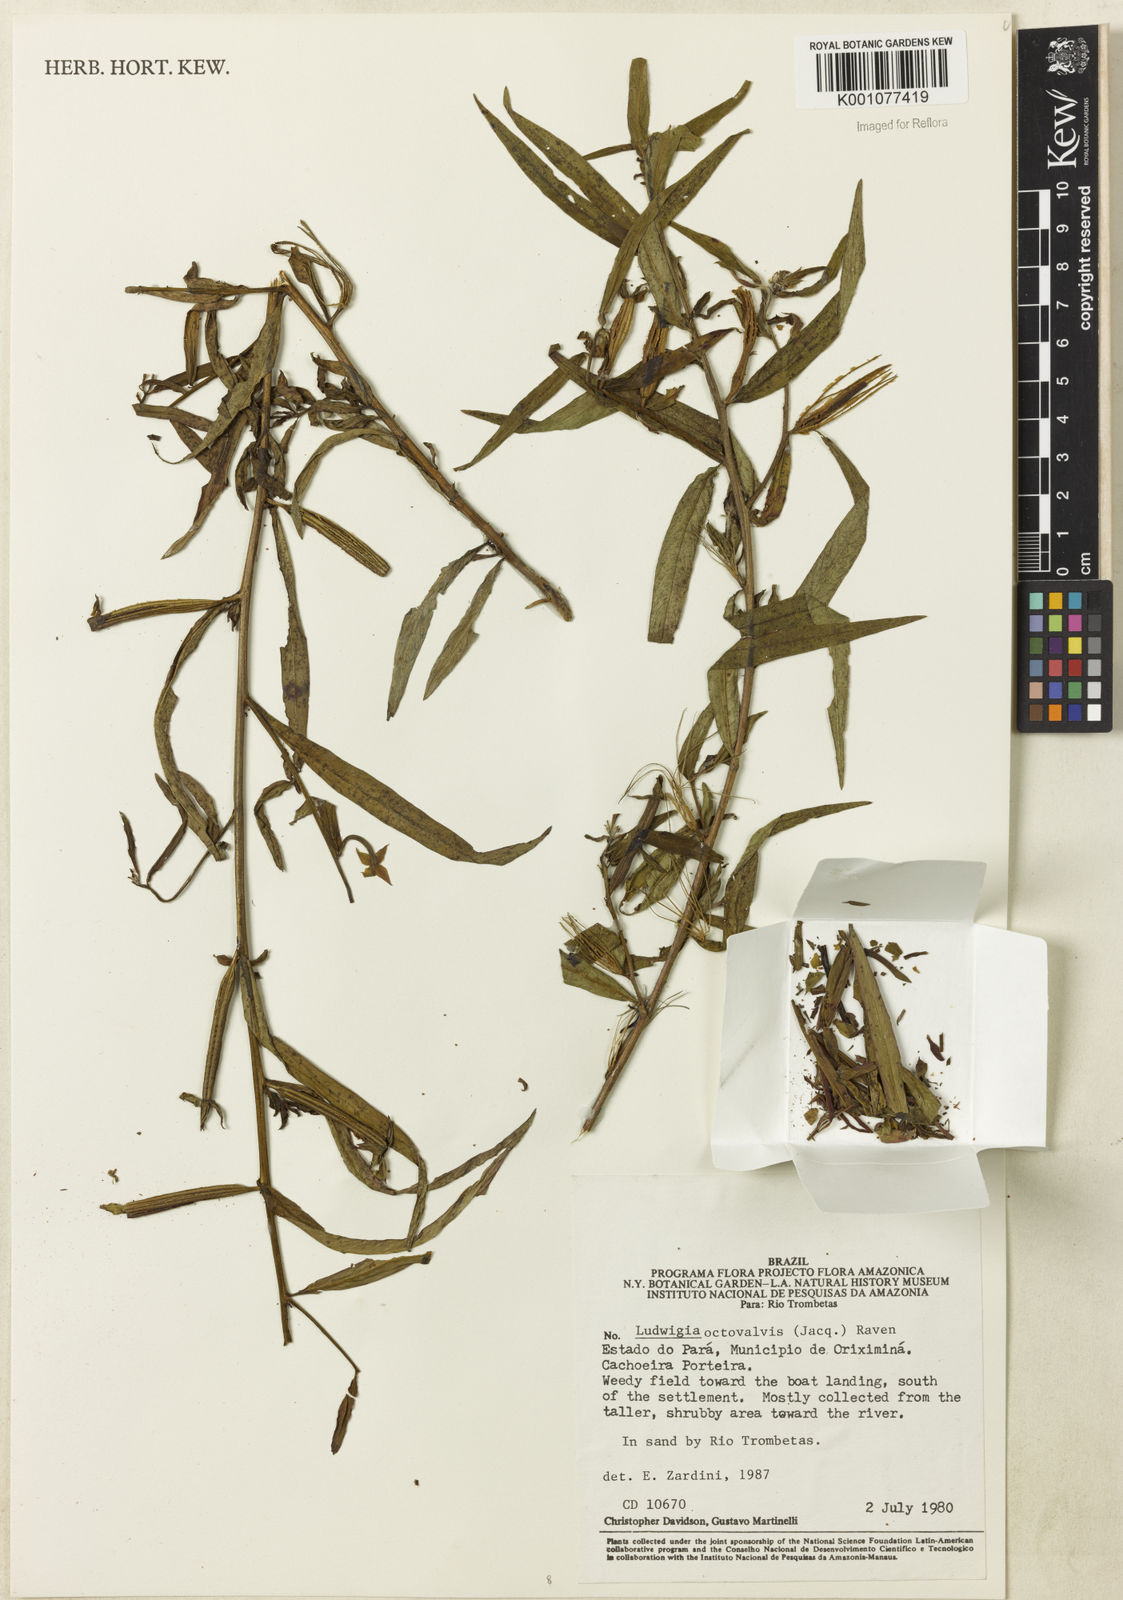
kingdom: Plantae
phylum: Tracheophyta
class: Magnoliopsida
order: Myrtales
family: Onagraceae
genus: Ludwigia
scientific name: Ludwigia octovalvis
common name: Water-primrose
